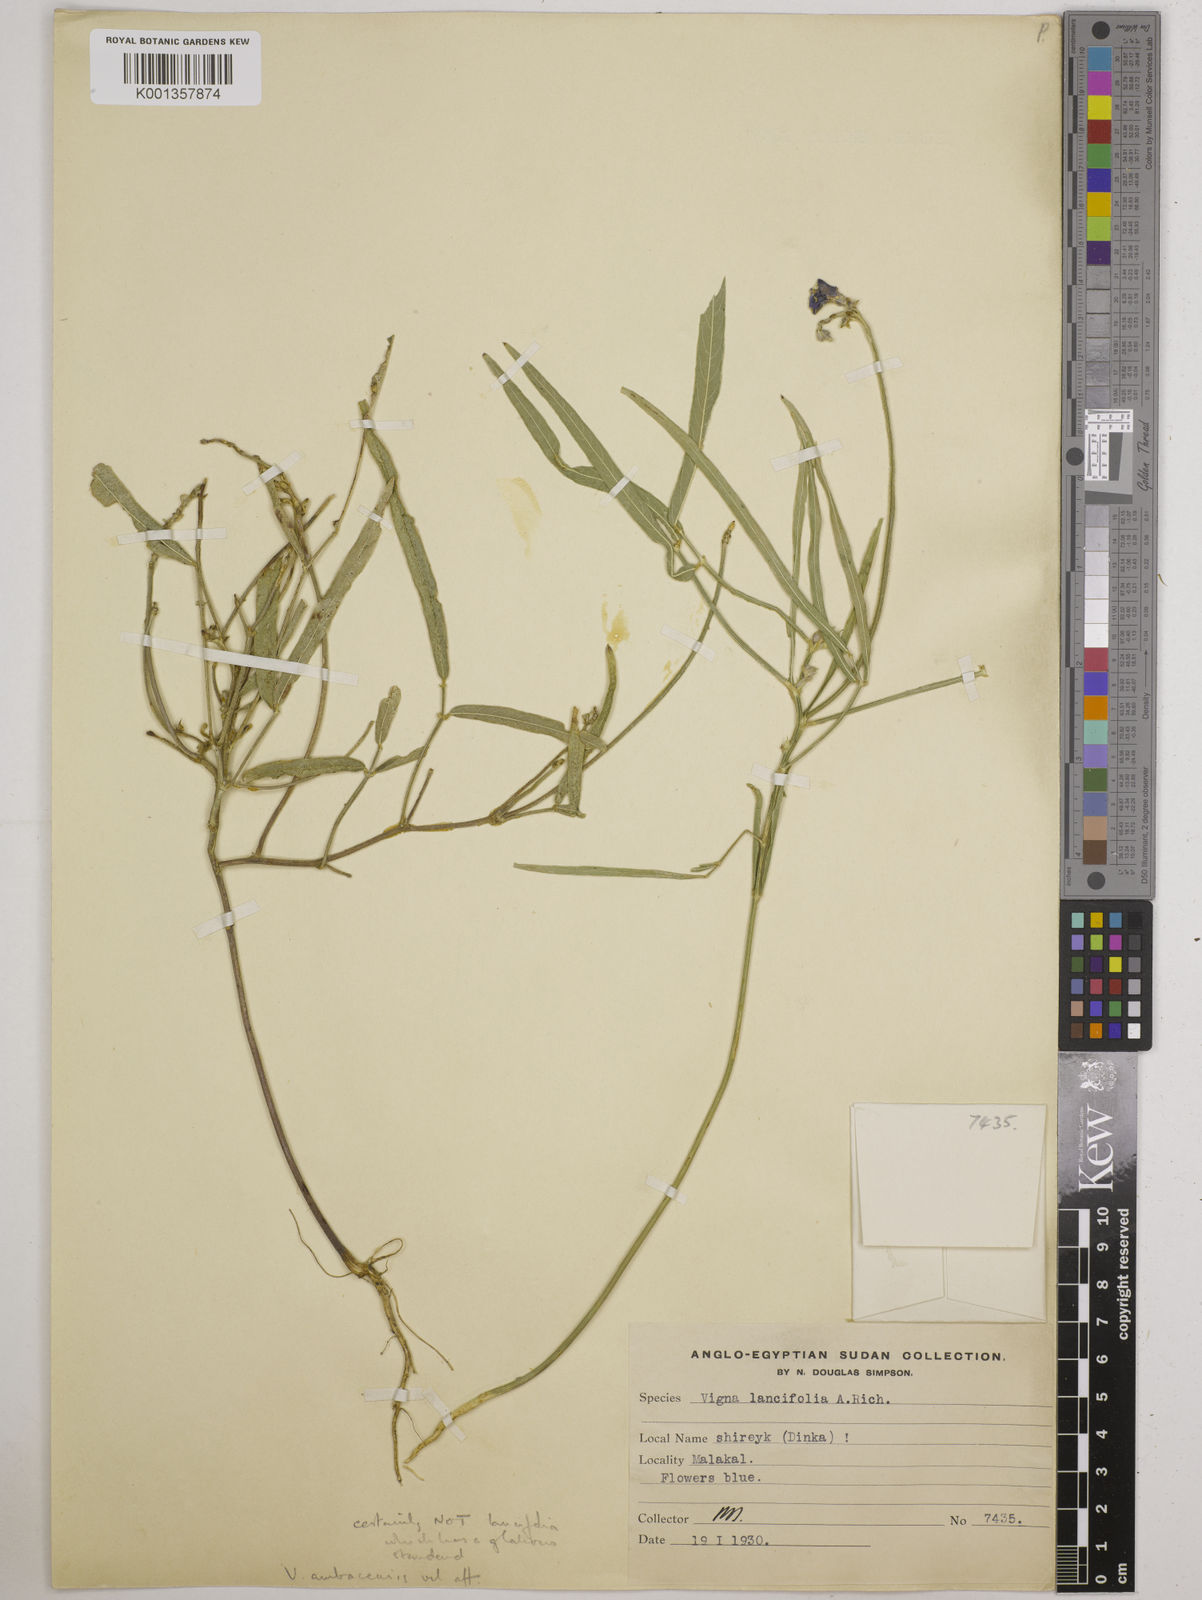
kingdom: Plantae
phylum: Tracheophyta
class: Magnoliopsida
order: Fabales
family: Fabaceae
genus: Vigna
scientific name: Vigna ambacensis
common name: Tsarkiyan zomo
